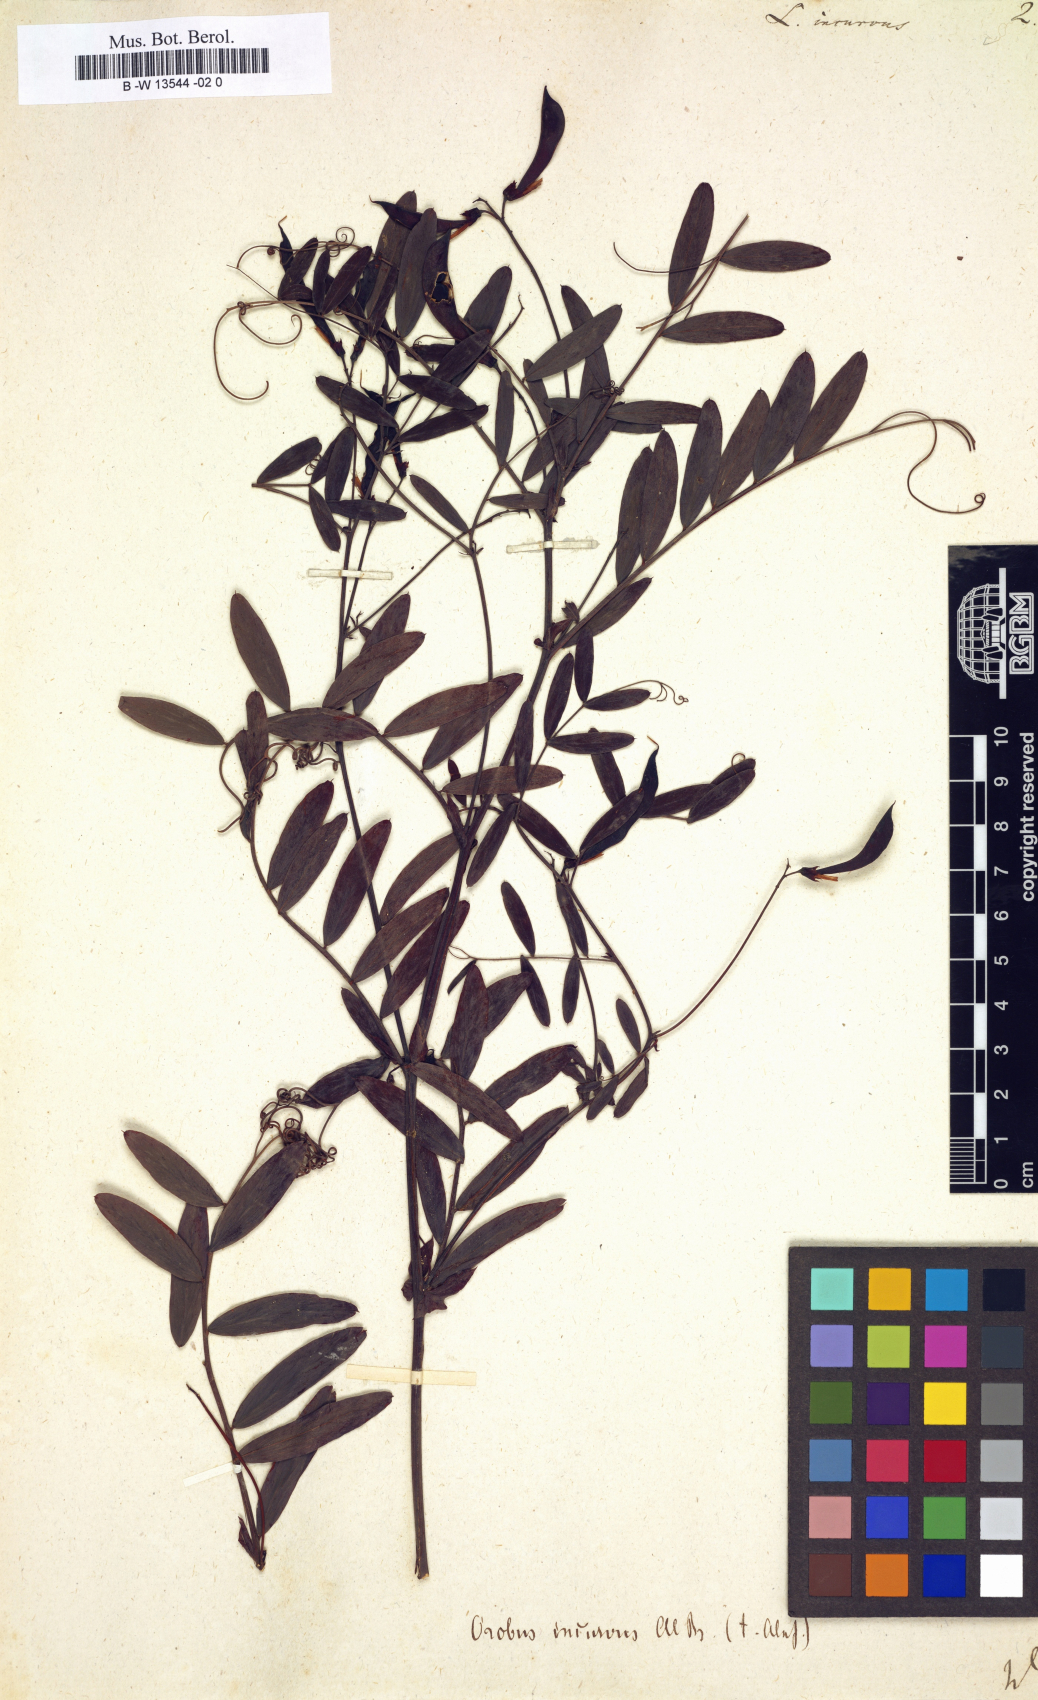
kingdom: Plantae
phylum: Tracheophyta
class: Magnoliopsida
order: Fabales
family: Fabaceae
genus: Lathyrus
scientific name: Lathyrus incurvus
